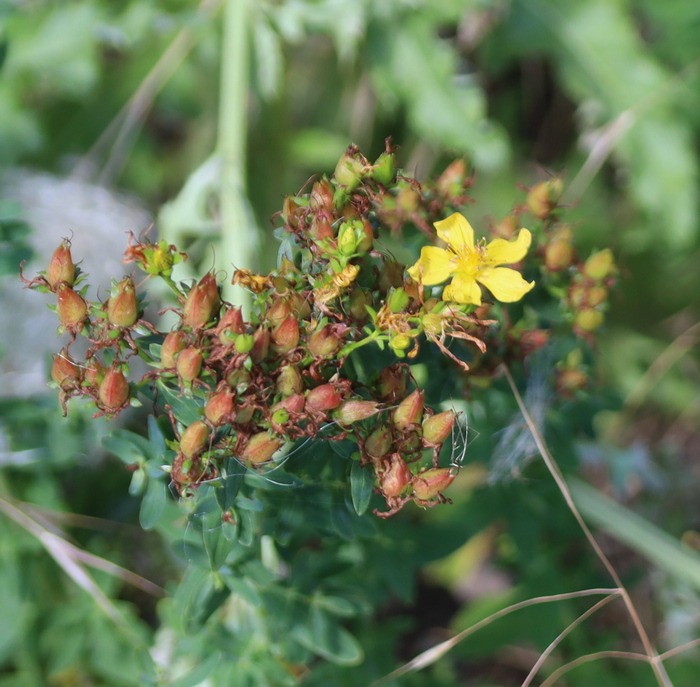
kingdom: Plantae
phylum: Tracheophyta
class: Magnoliopsida
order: Malpighiales
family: Hypericaceae
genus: Hypericum
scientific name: Hypericum perforatum
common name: Prikbladet perikon
